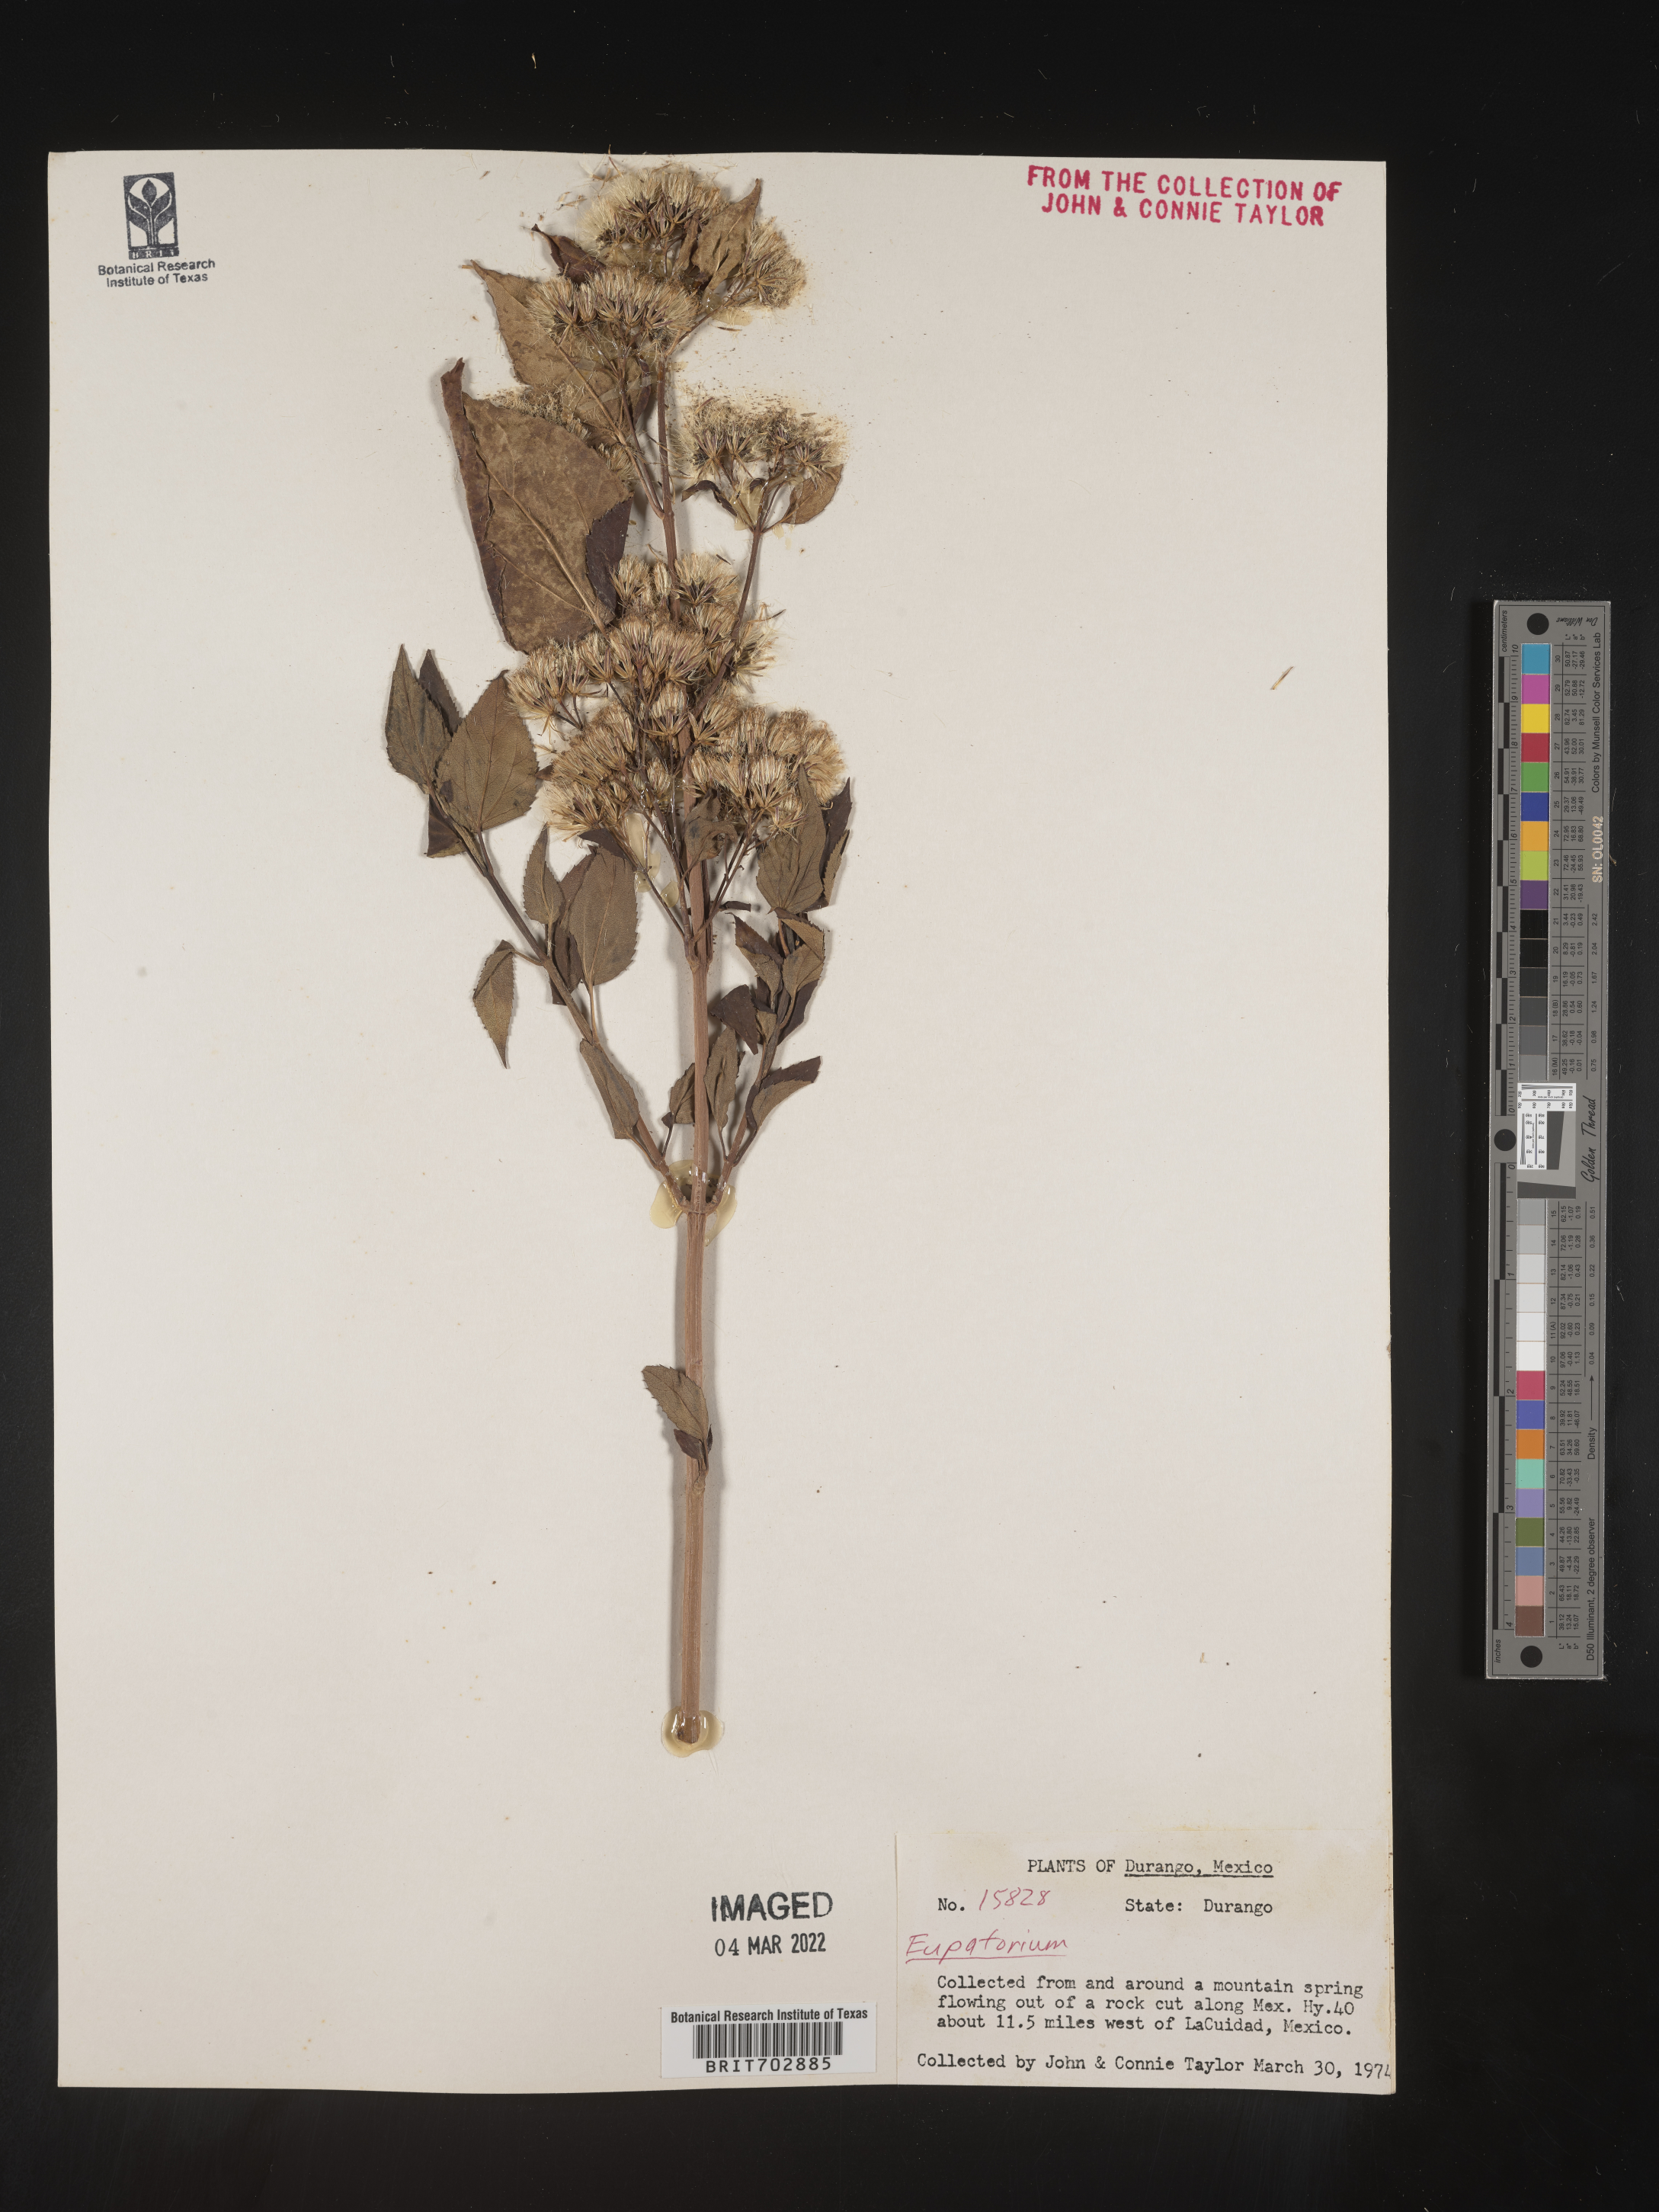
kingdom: Plantae
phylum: Tracheophyta
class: Magnoliopsida
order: Asterales
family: Asteraceae
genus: Eupatorium
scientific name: Eupatorium
